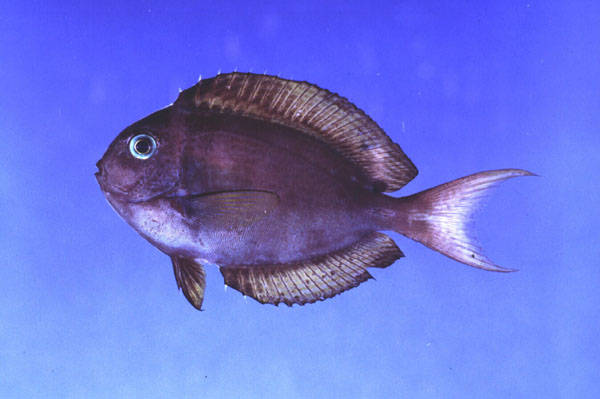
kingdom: Animalia
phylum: Chordata
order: Perciformes
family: Acanthuridae
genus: Acanthurus
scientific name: Acanthurus thompsoni
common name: Chocolate surgeonfish
